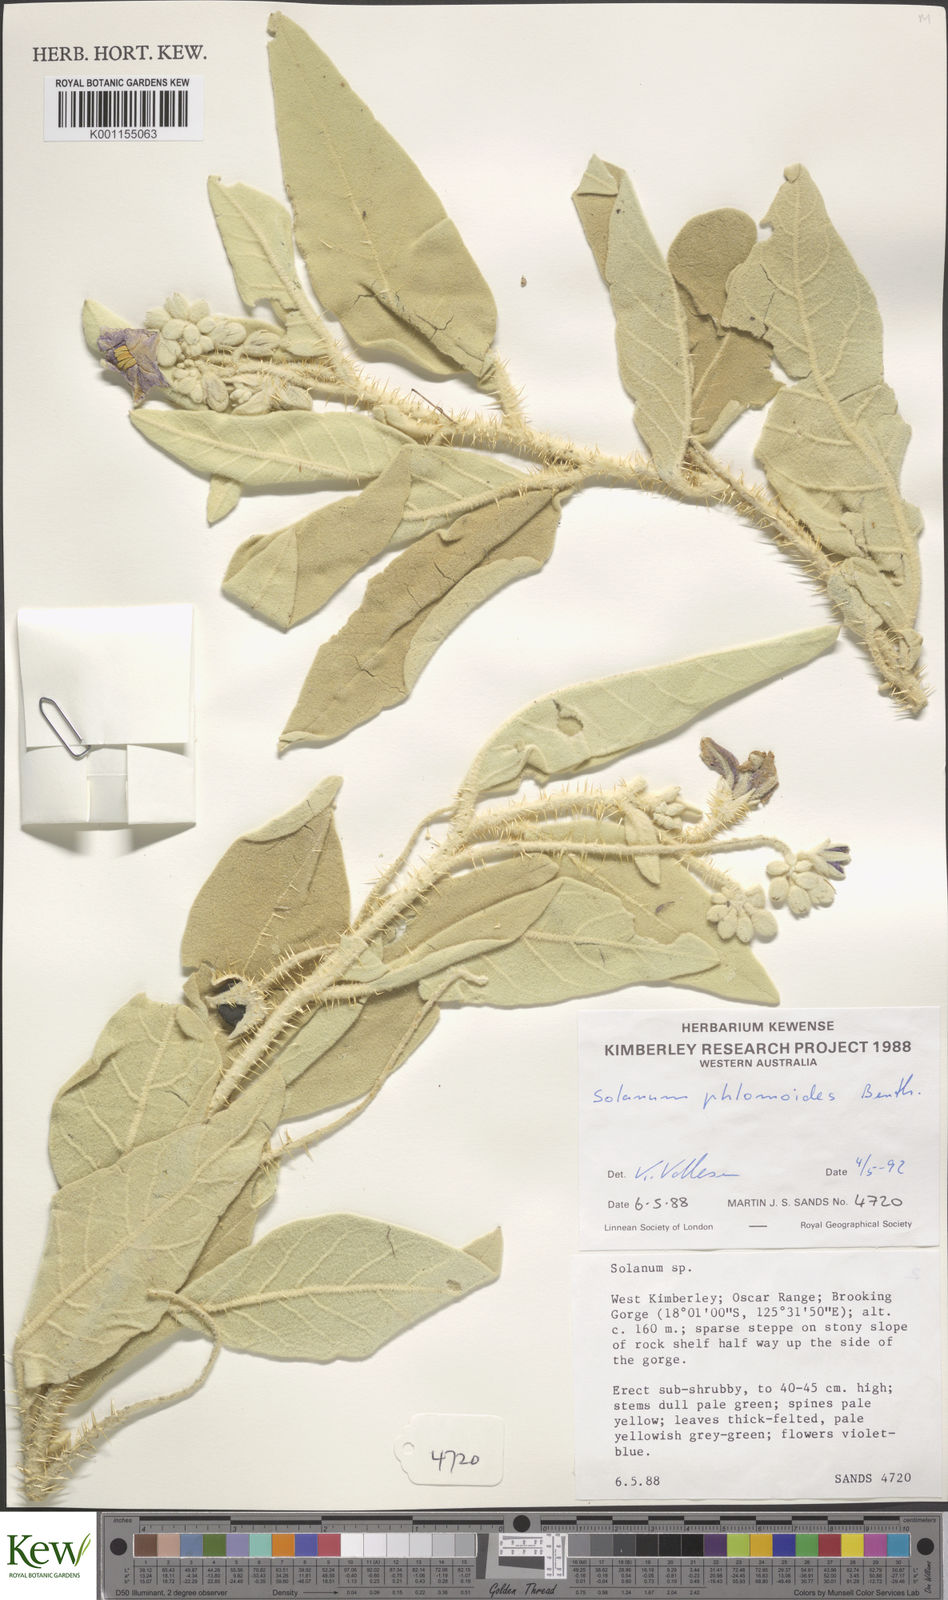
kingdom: Plantae
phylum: Tracheophyta
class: Magnoliopsida
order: Solanales
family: Solanaceae
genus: Solanum
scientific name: Solanum phlomoides
